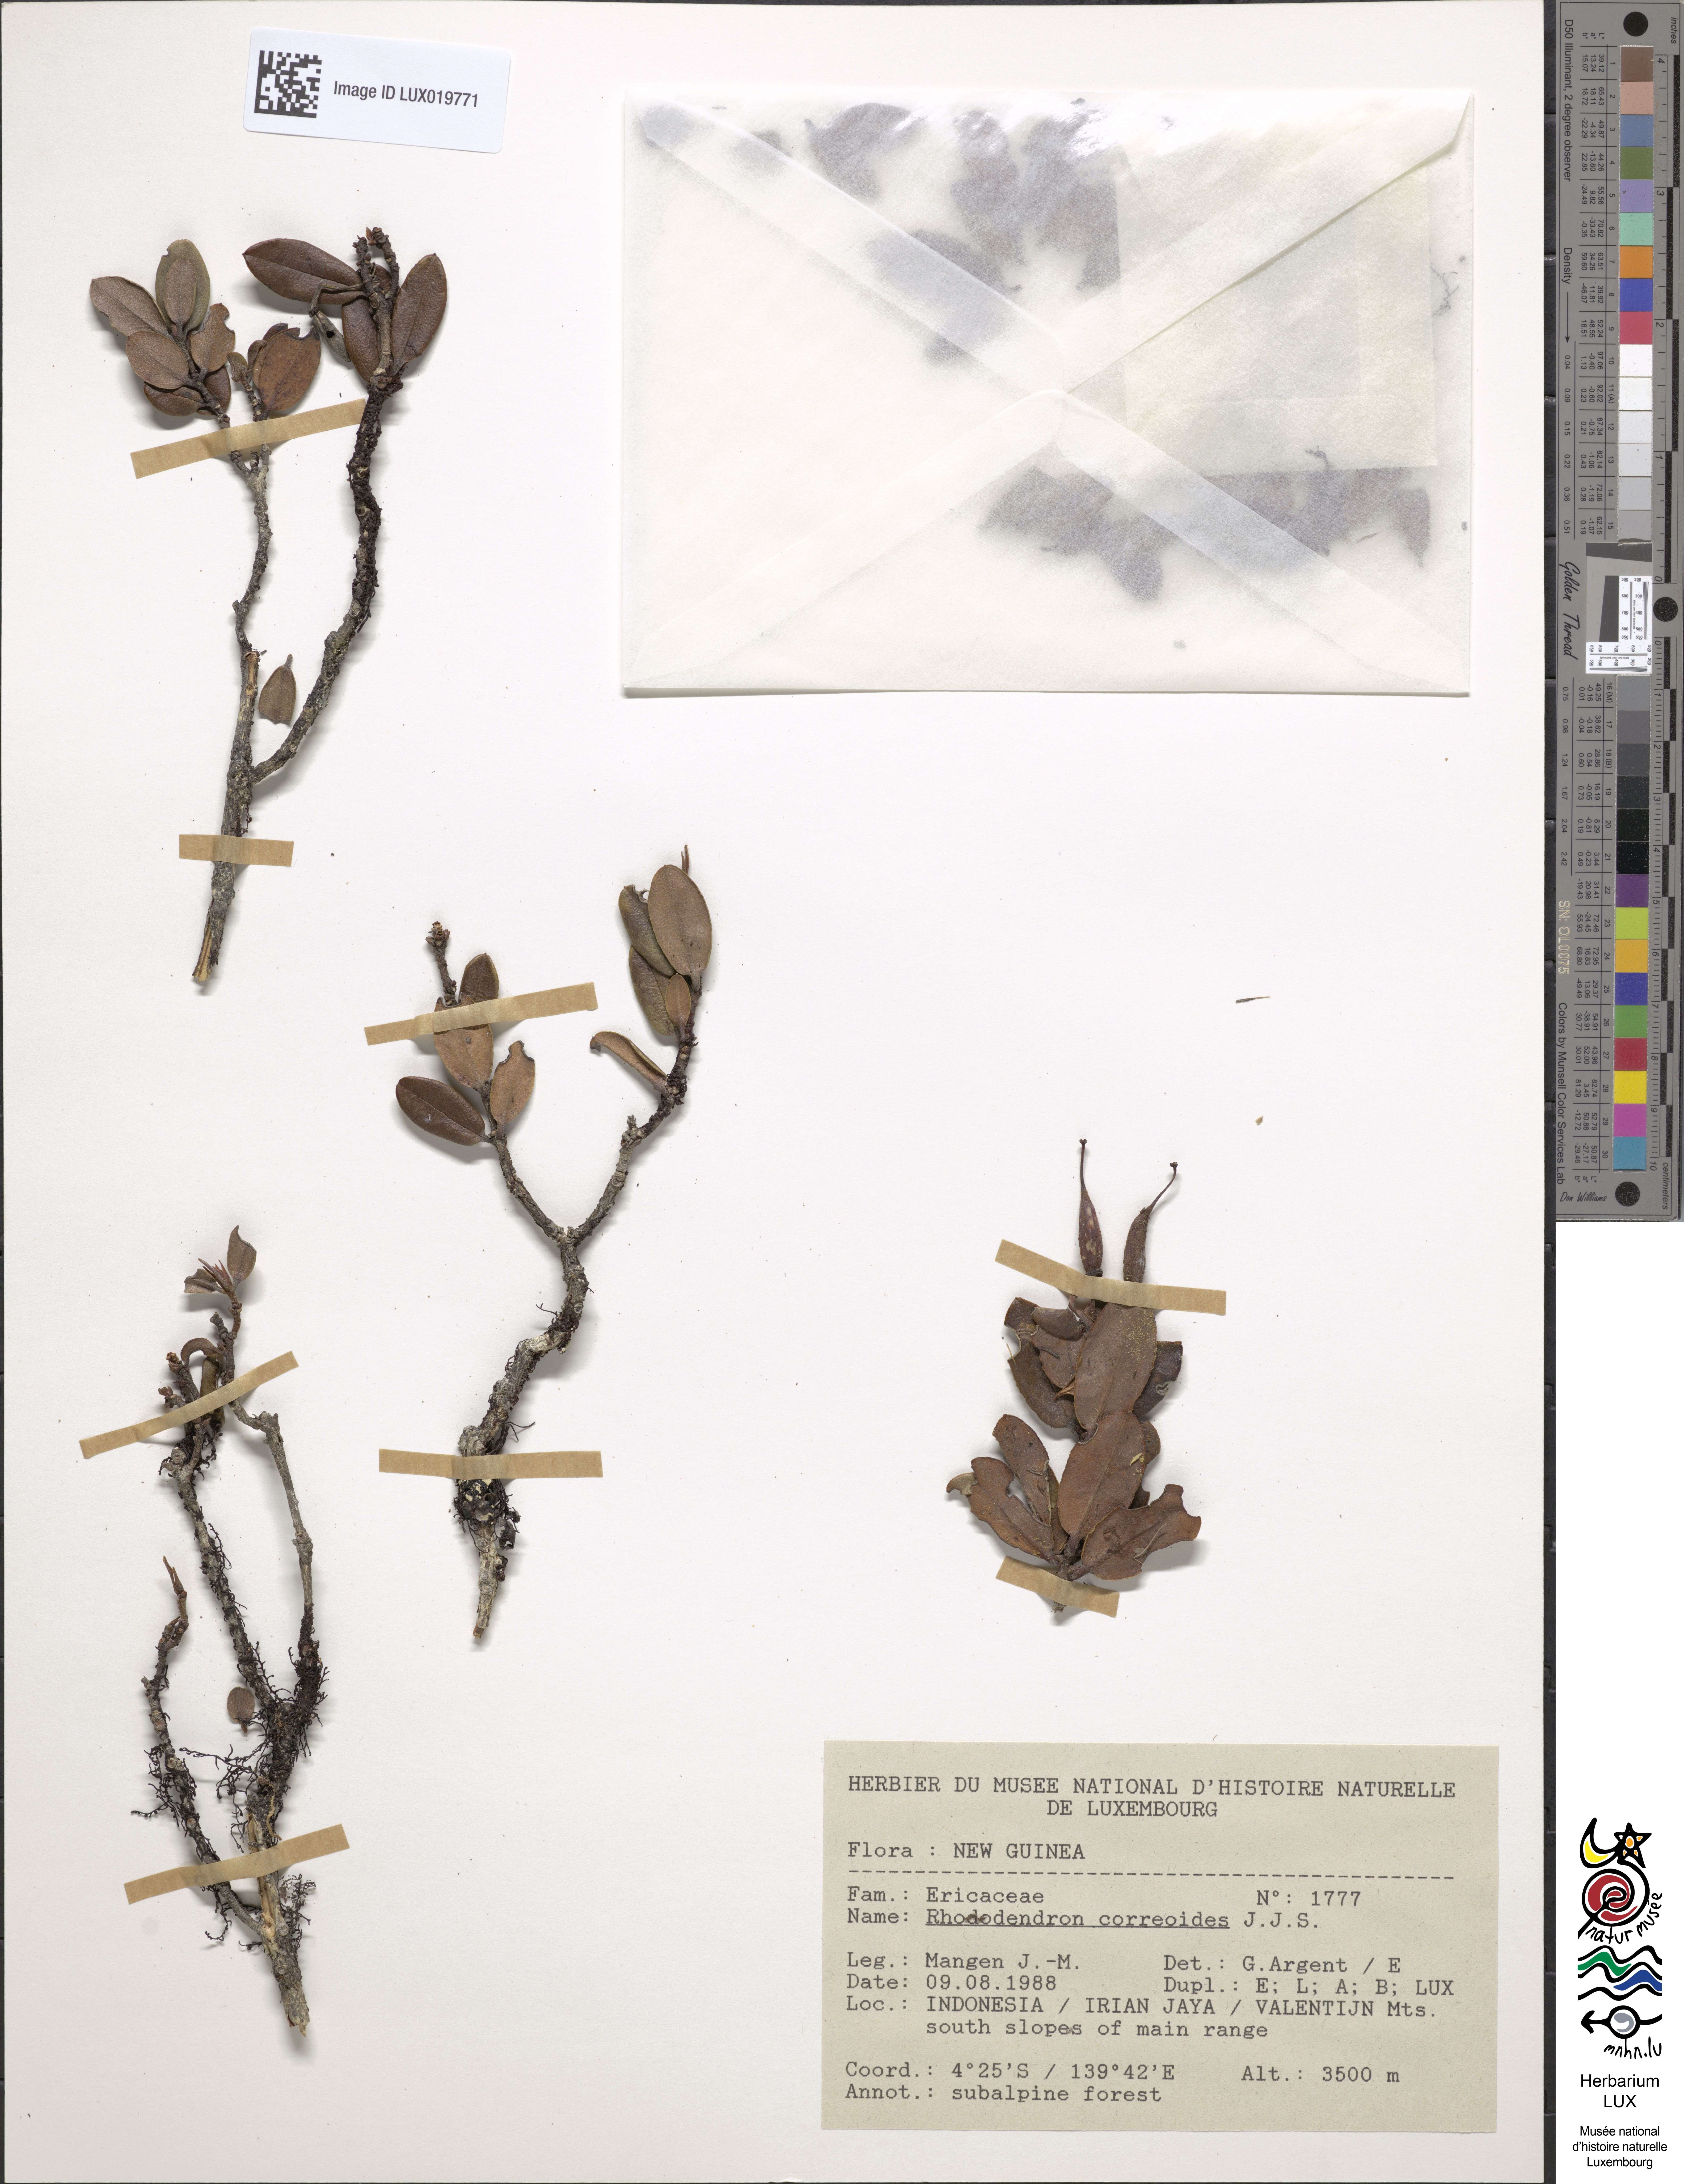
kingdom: Plantae
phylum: Tracheophyta
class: Magnoliopsida
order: Ericales
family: Ericaceae
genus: Rhododendron
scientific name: Rhododendron correoides
